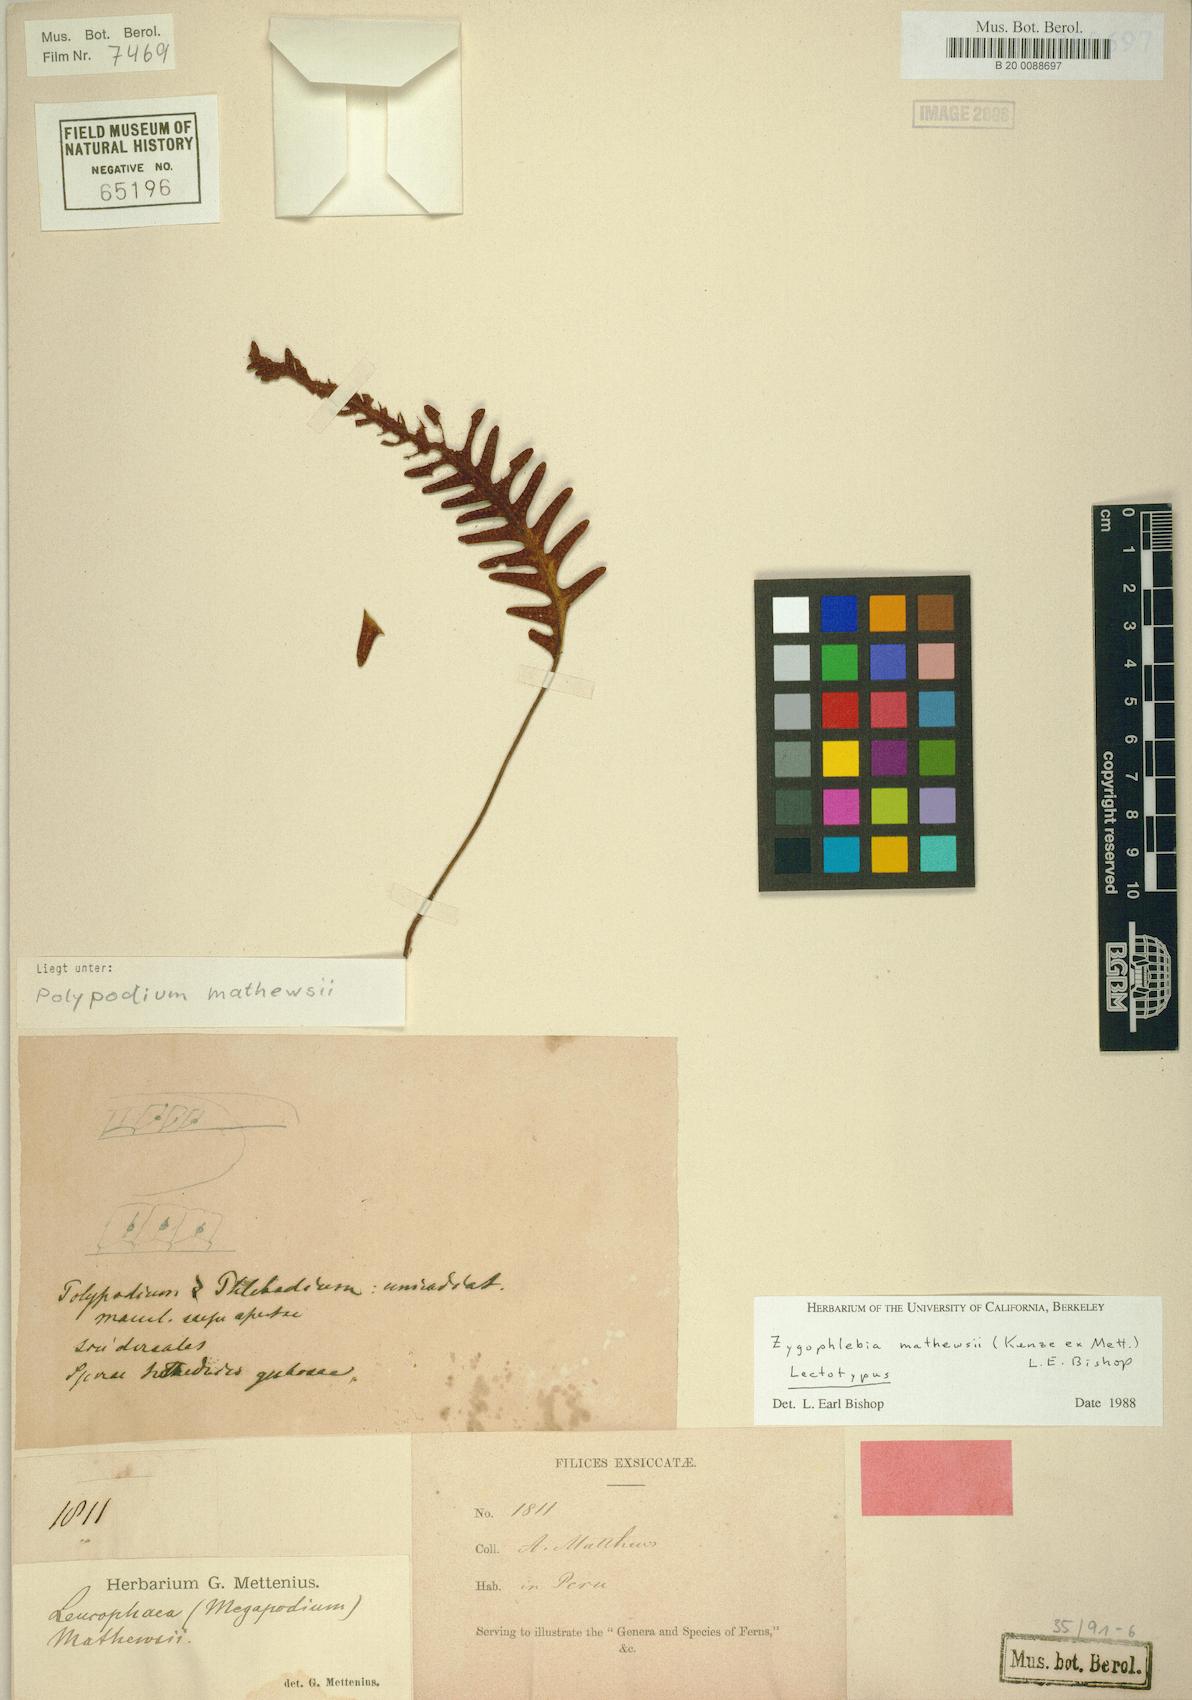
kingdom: Plantae
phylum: Tracheophyta
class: Polypodiopsida
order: Polypodiales
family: Polypodiaceae
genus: Enterosora
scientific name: Enterosora mathewsii
